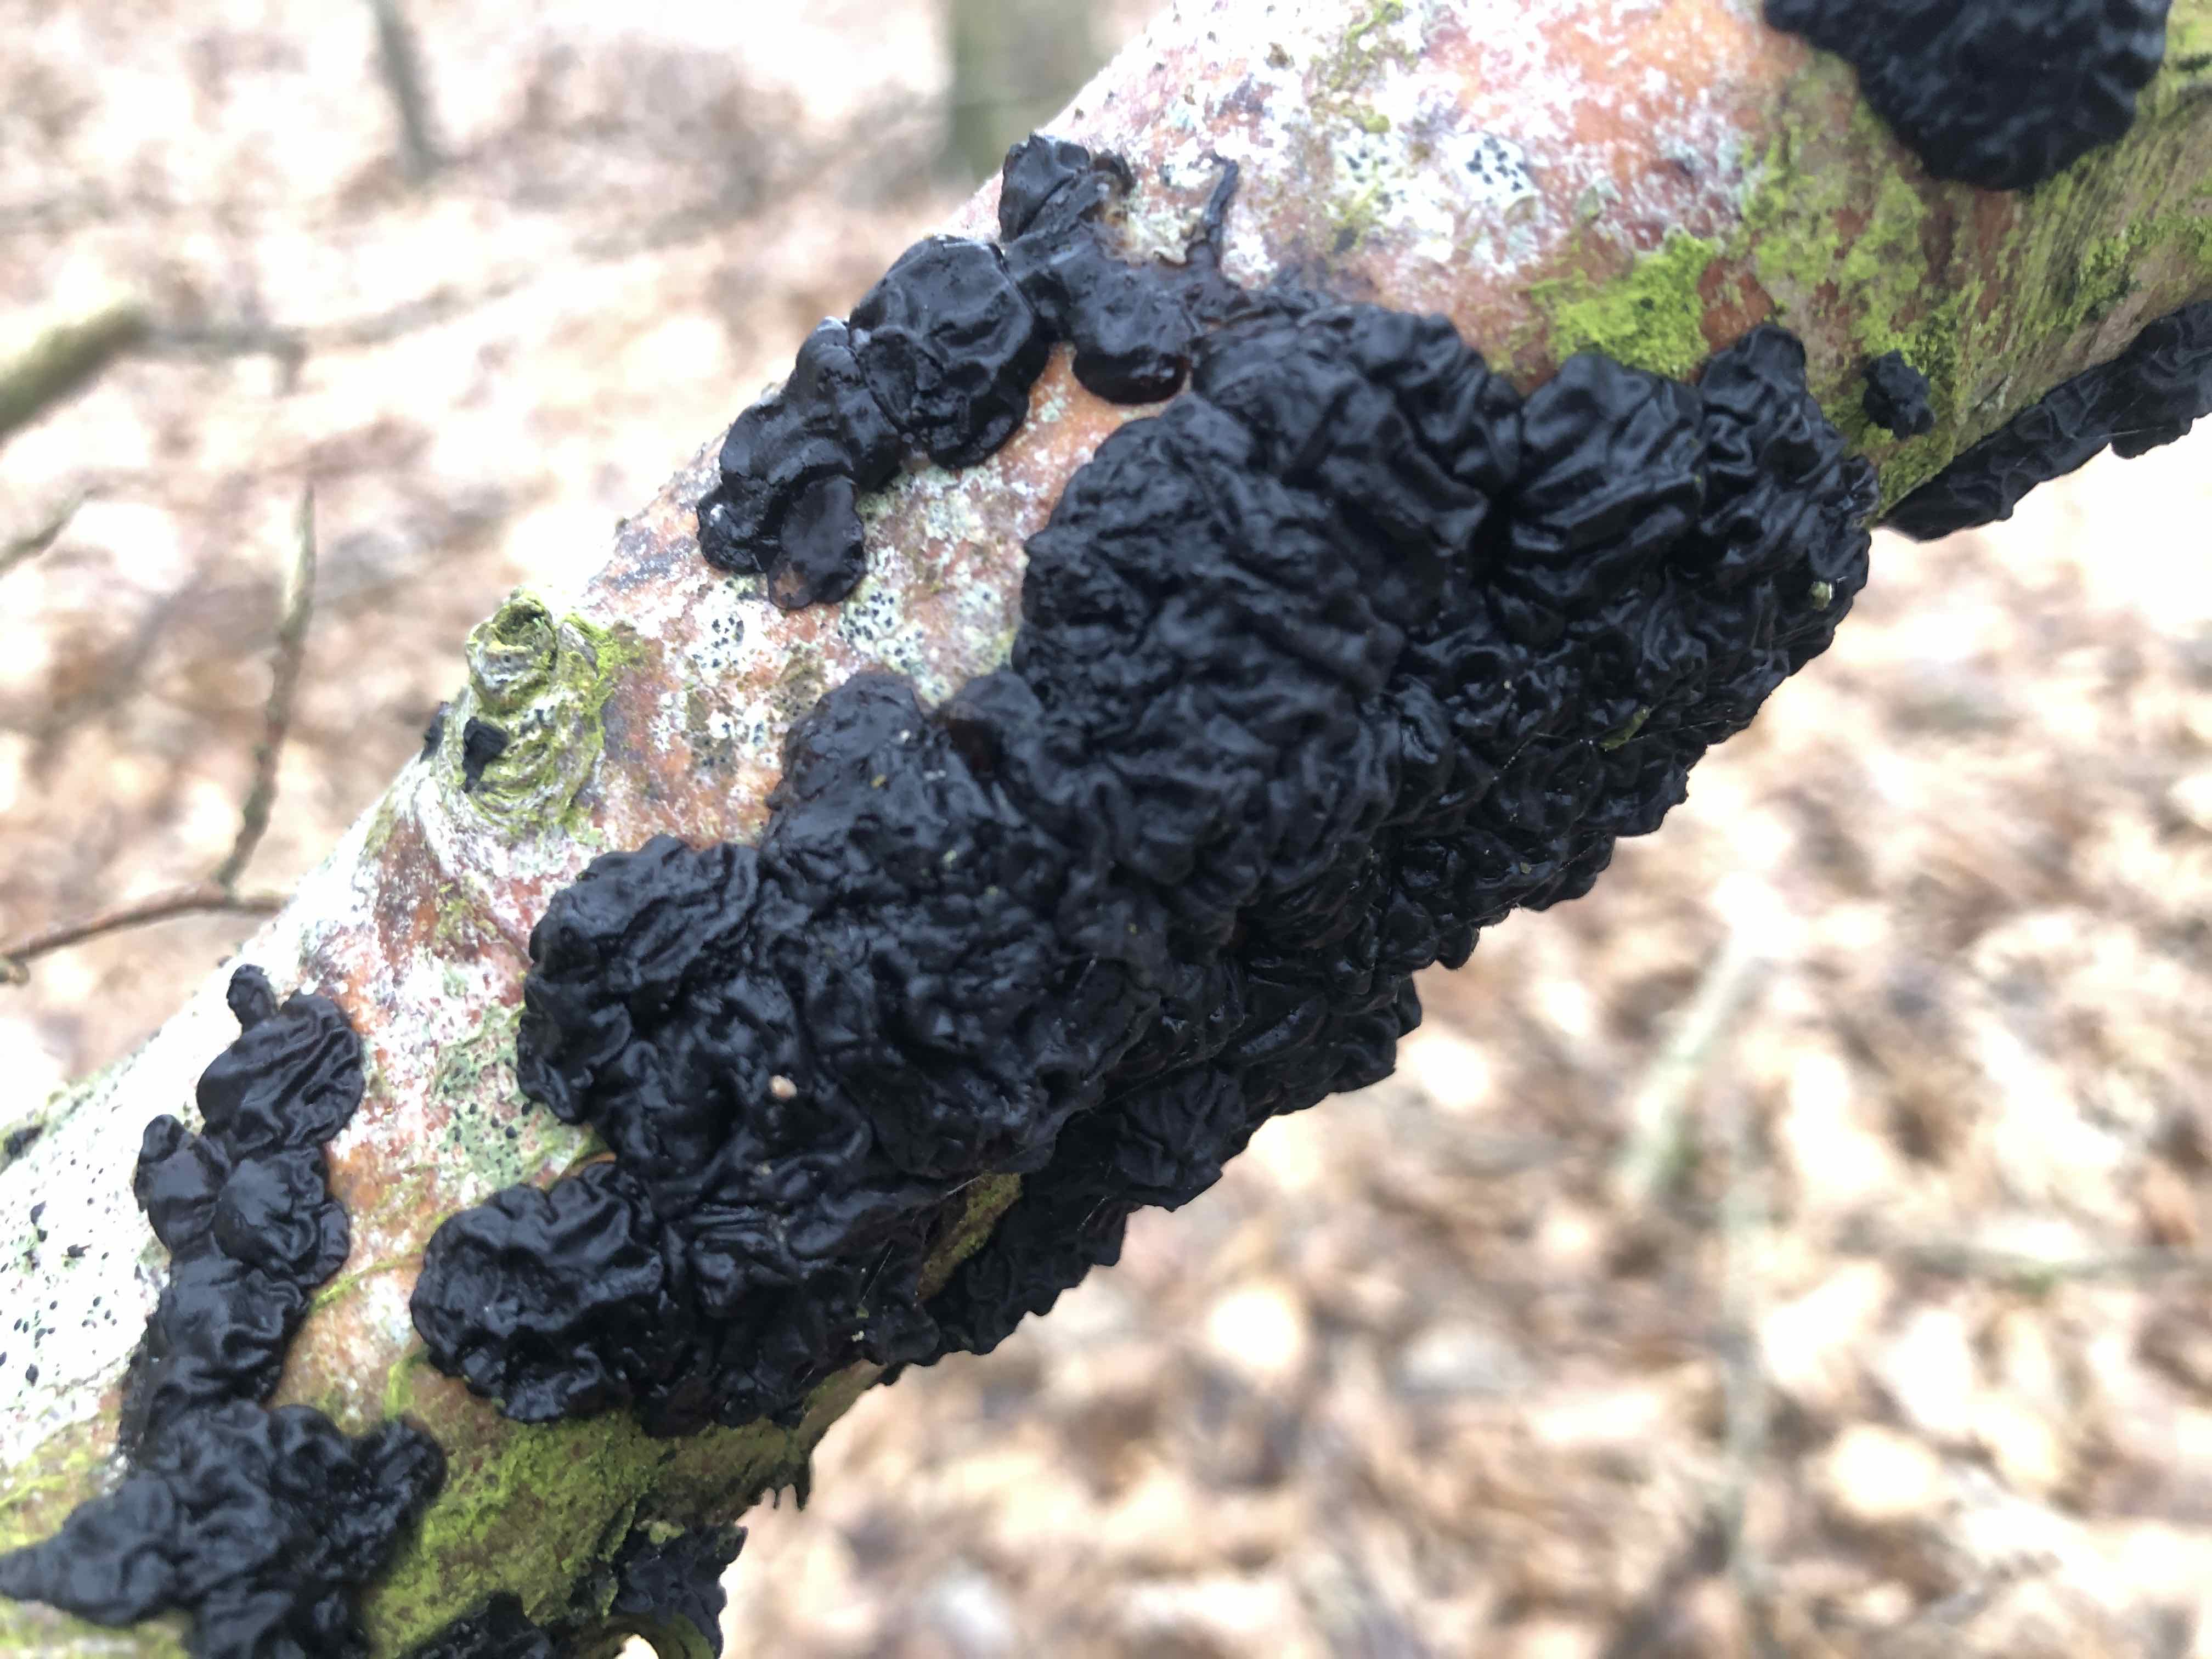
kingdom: Fungi
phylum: Basidiomycota
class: Agaricomycetes
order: Auriculariales
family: Auriculariaceae
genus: Exidia
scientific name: Exidia nigricans
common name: almindelig bævretop
